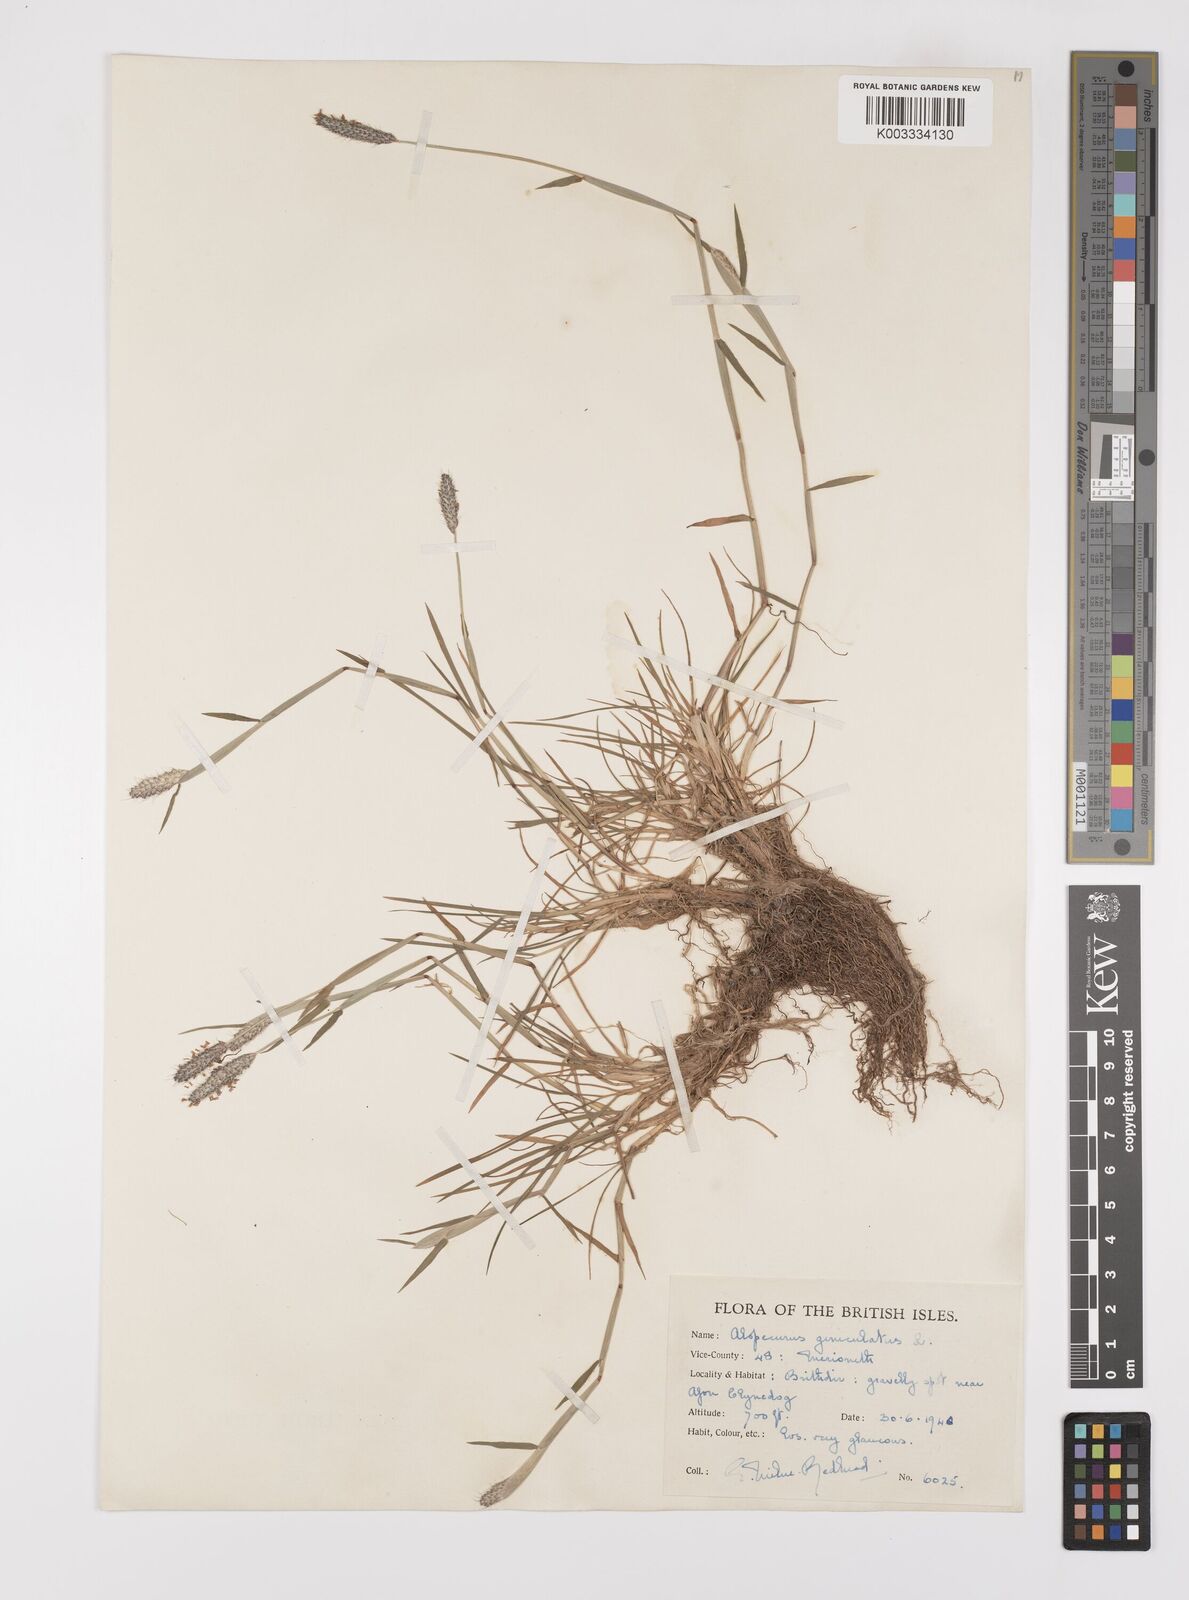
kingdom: Plantae
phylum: Tracheophyta
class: Liliopsida
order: Poales
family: Poaceae
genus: Alopecurus
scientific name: Alopecurus geniculatus
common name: Water foxtail
